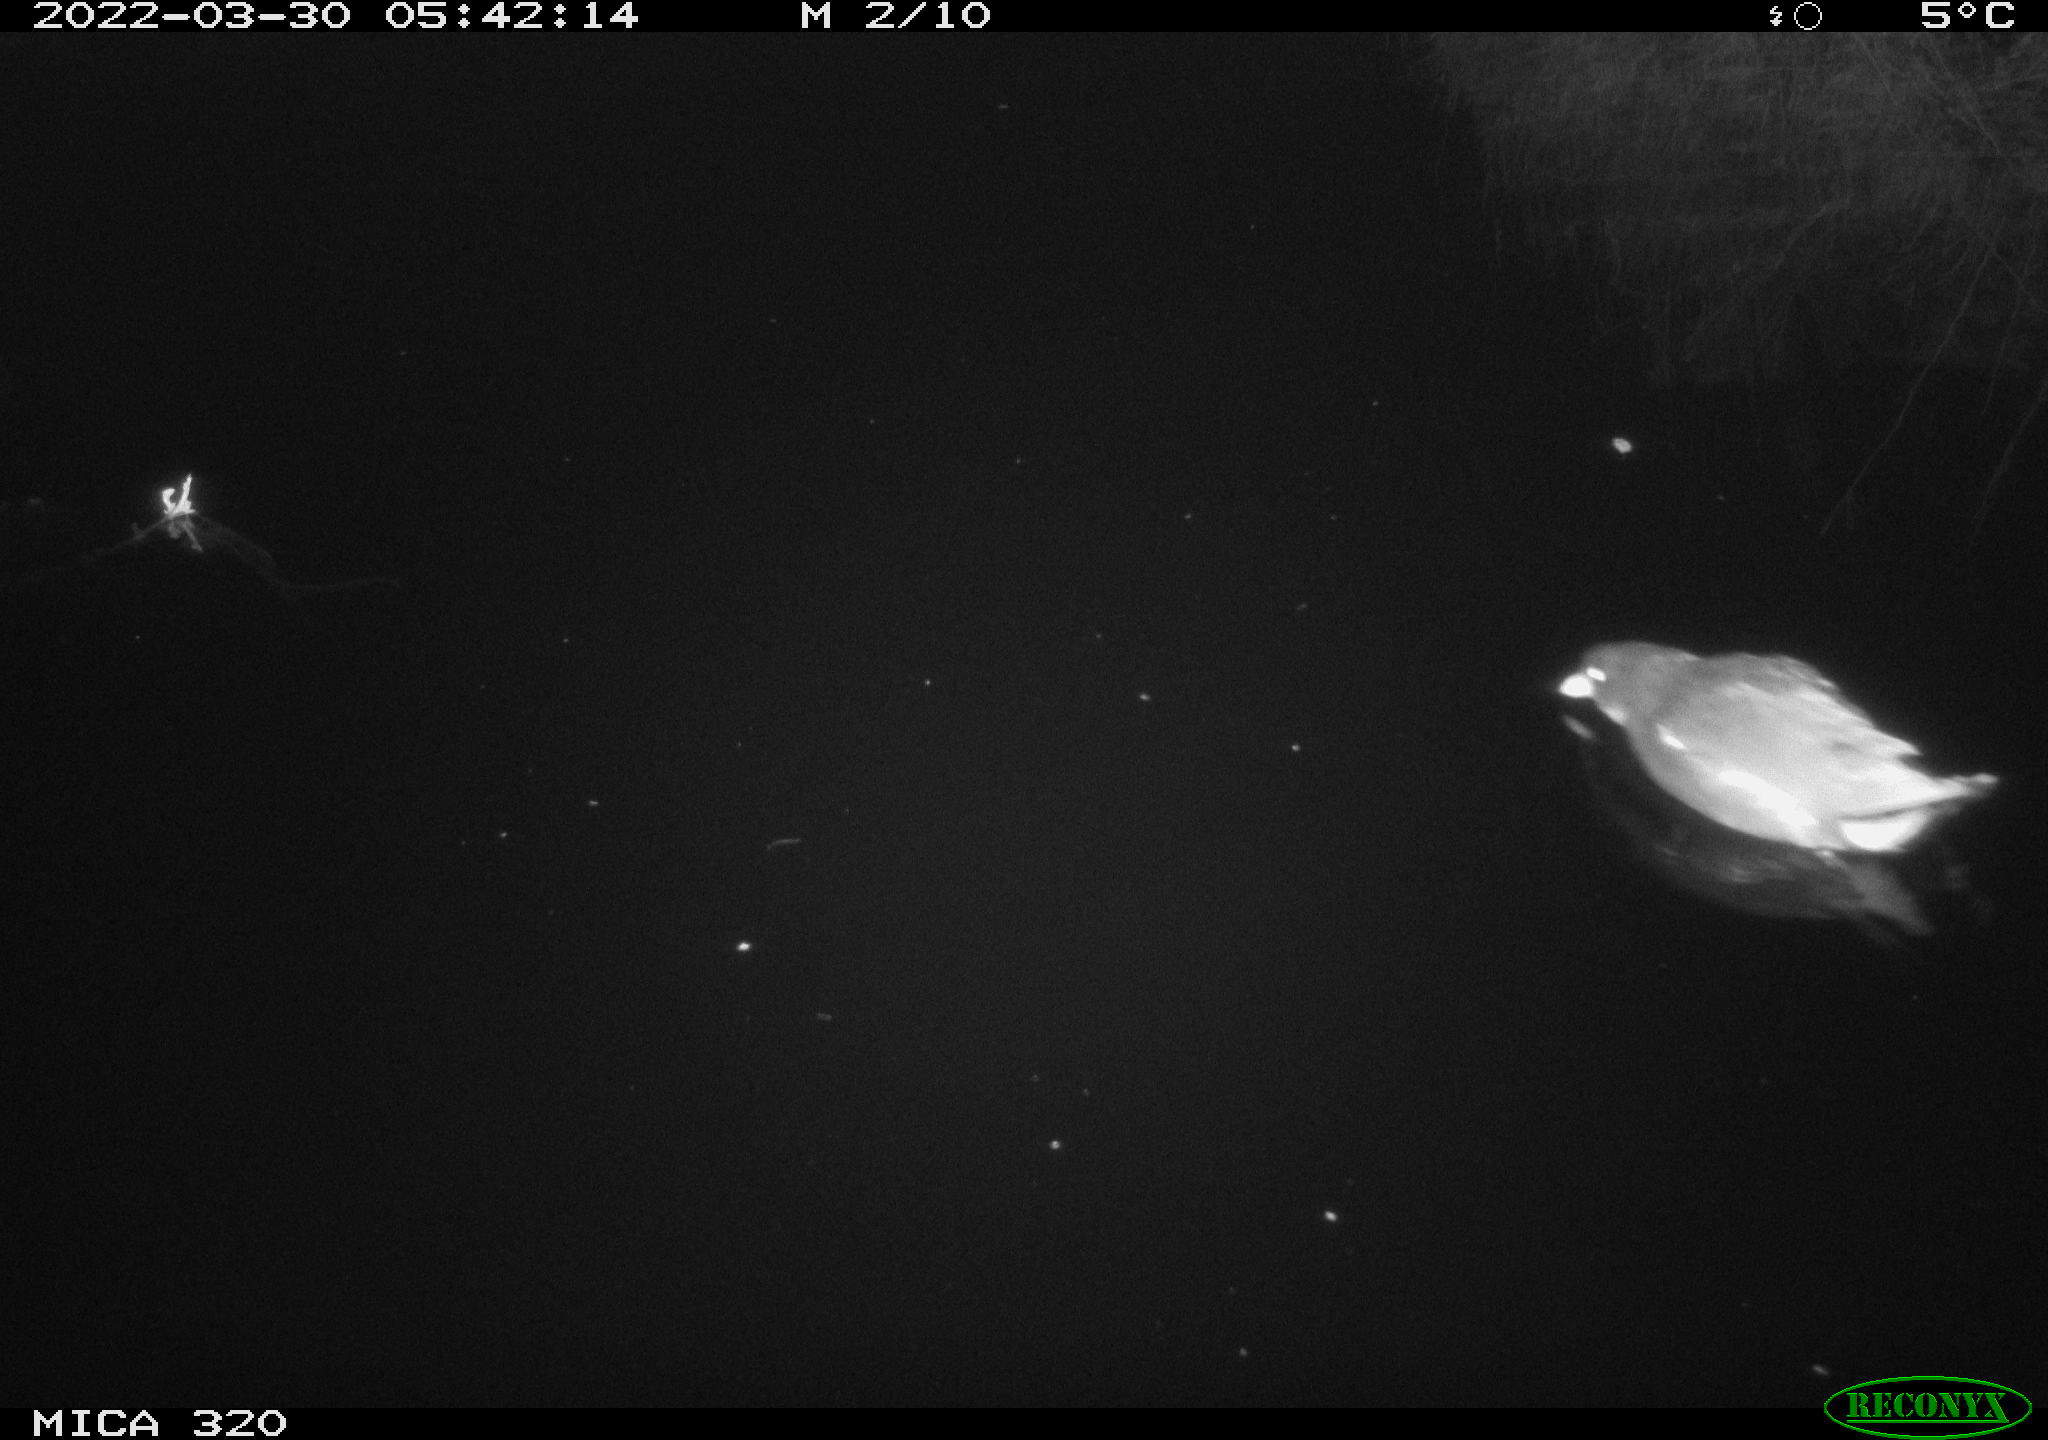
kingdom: Animalia
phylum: Chordata
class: Aves
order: Gruiformes
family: Rallidae
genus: Gallinula
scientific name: Gallinula chloropus
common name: Common moorhen
